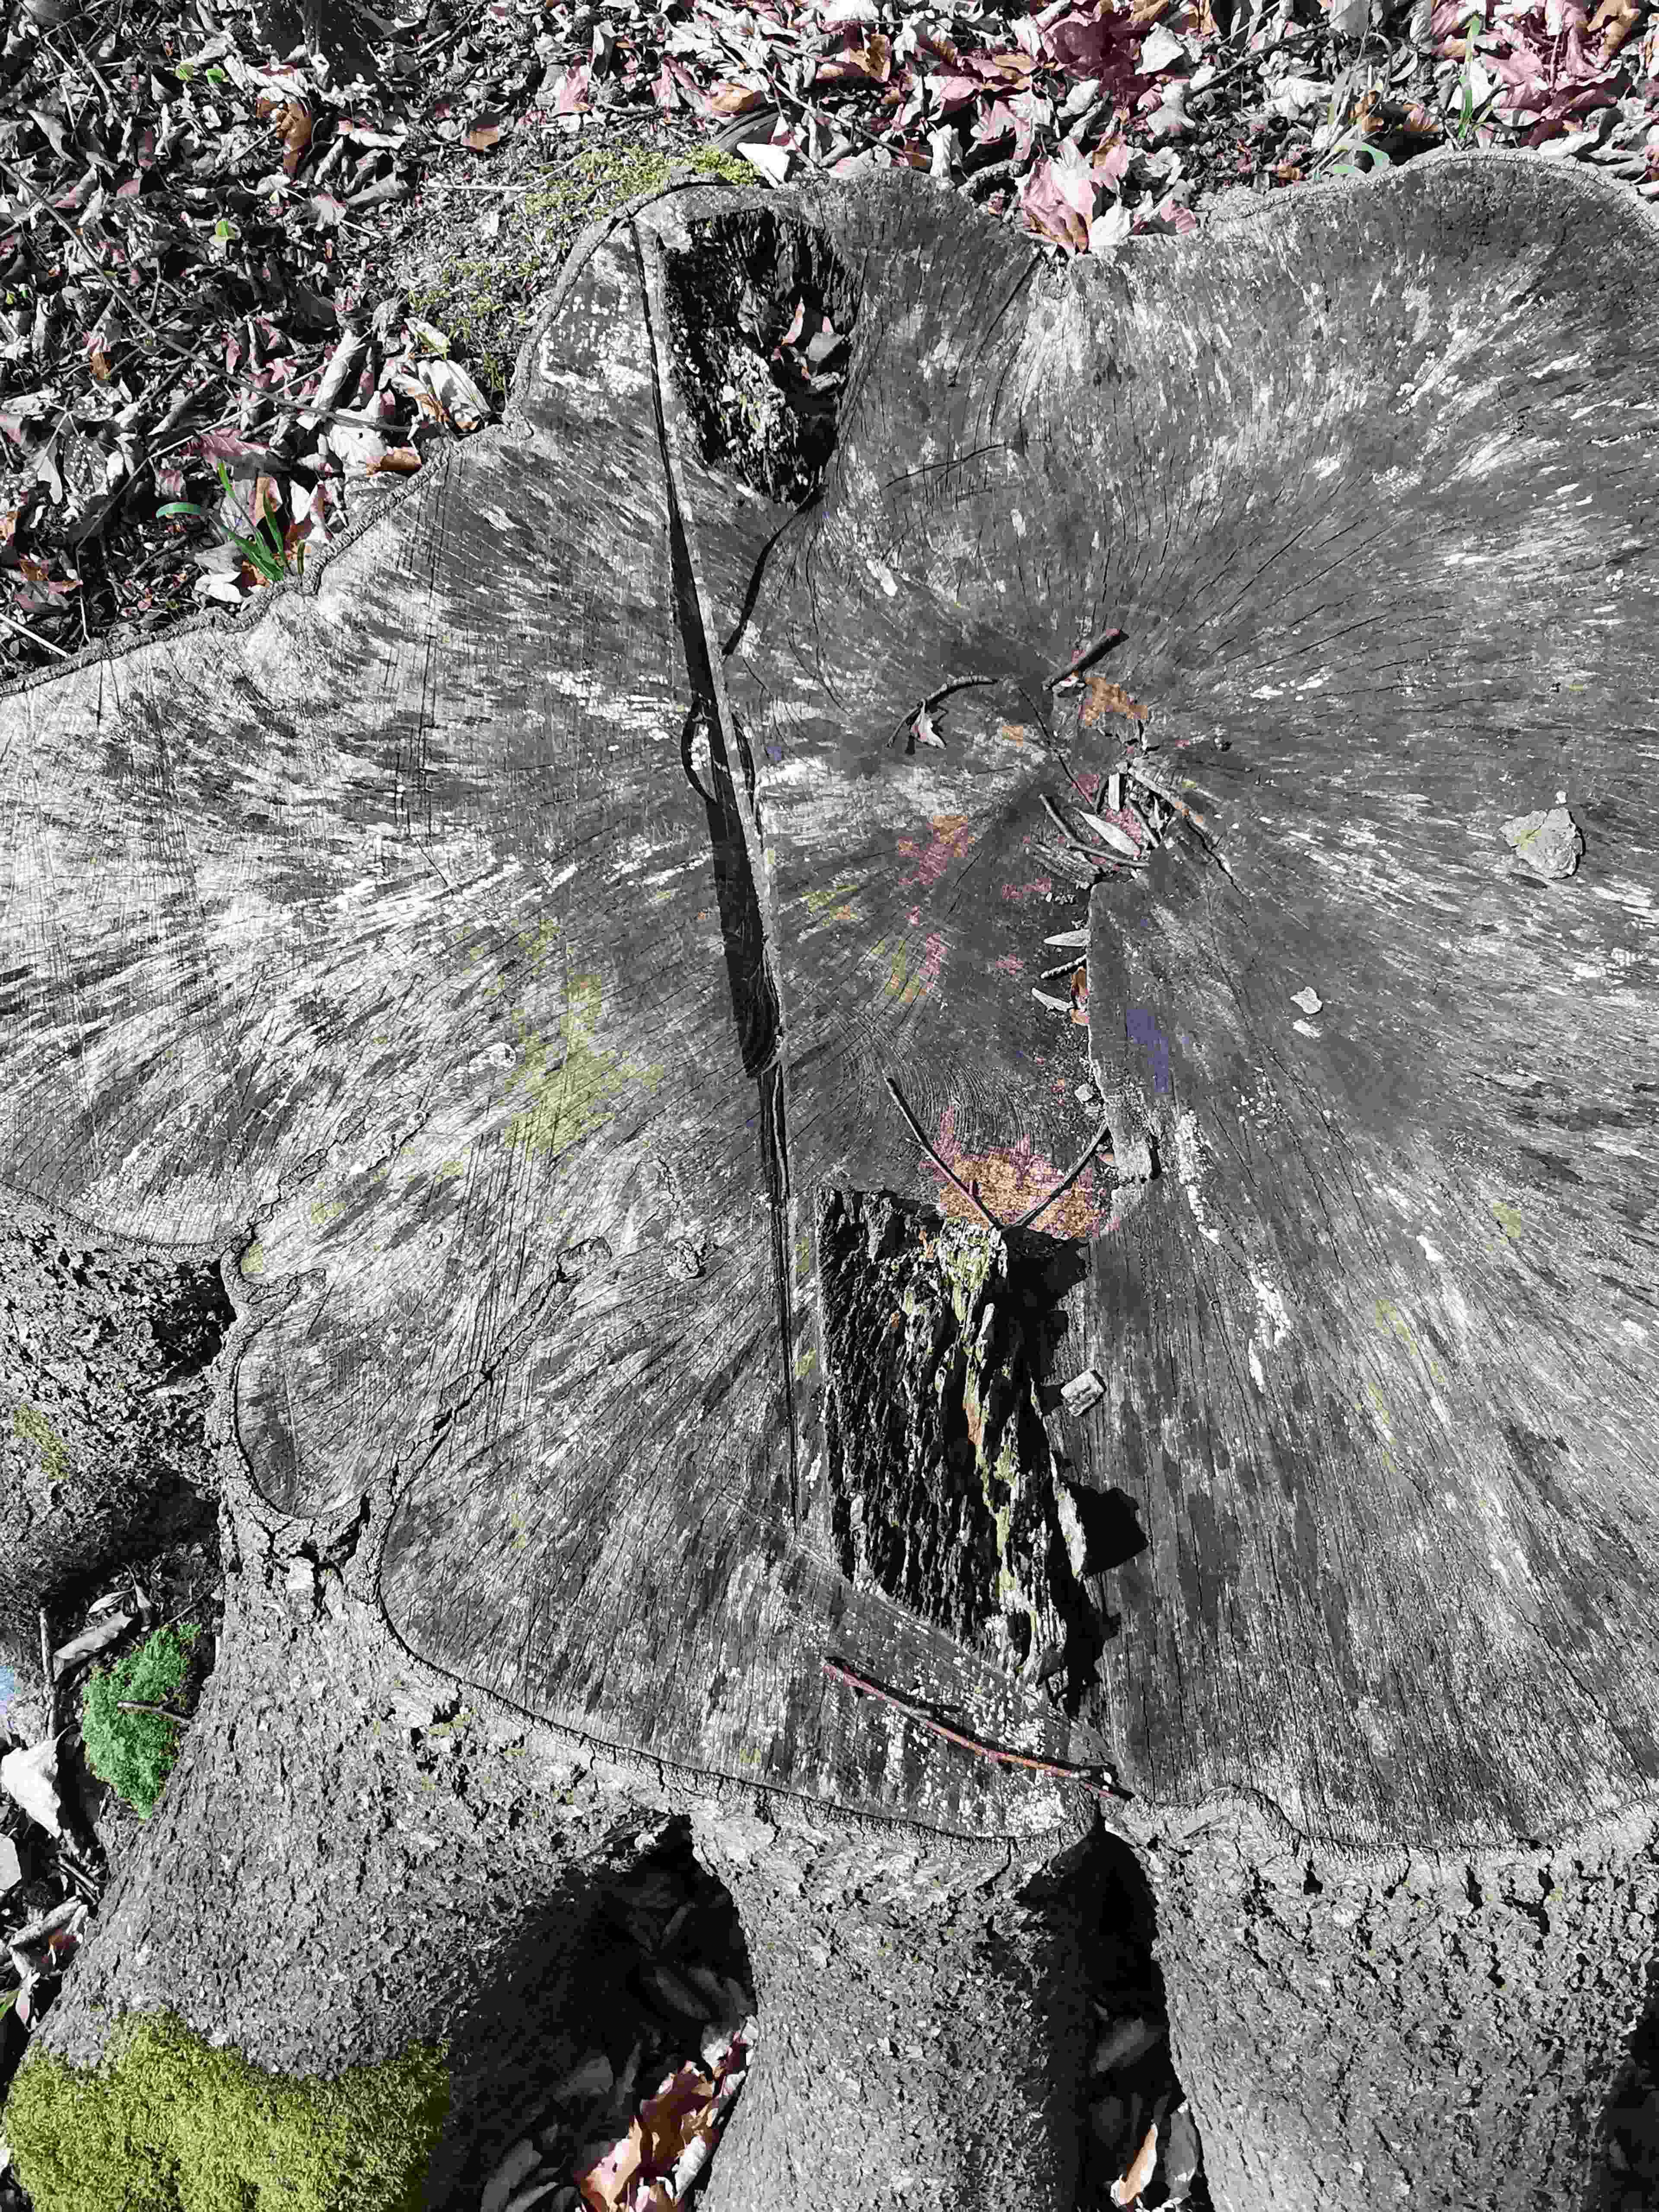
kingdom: Fungi
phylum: Ascomycota
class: Leotiomycetes
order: Helotiales
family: Helotiaceae
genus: Bispora
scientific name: Bispora pallescens
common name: måtte-snitskive
